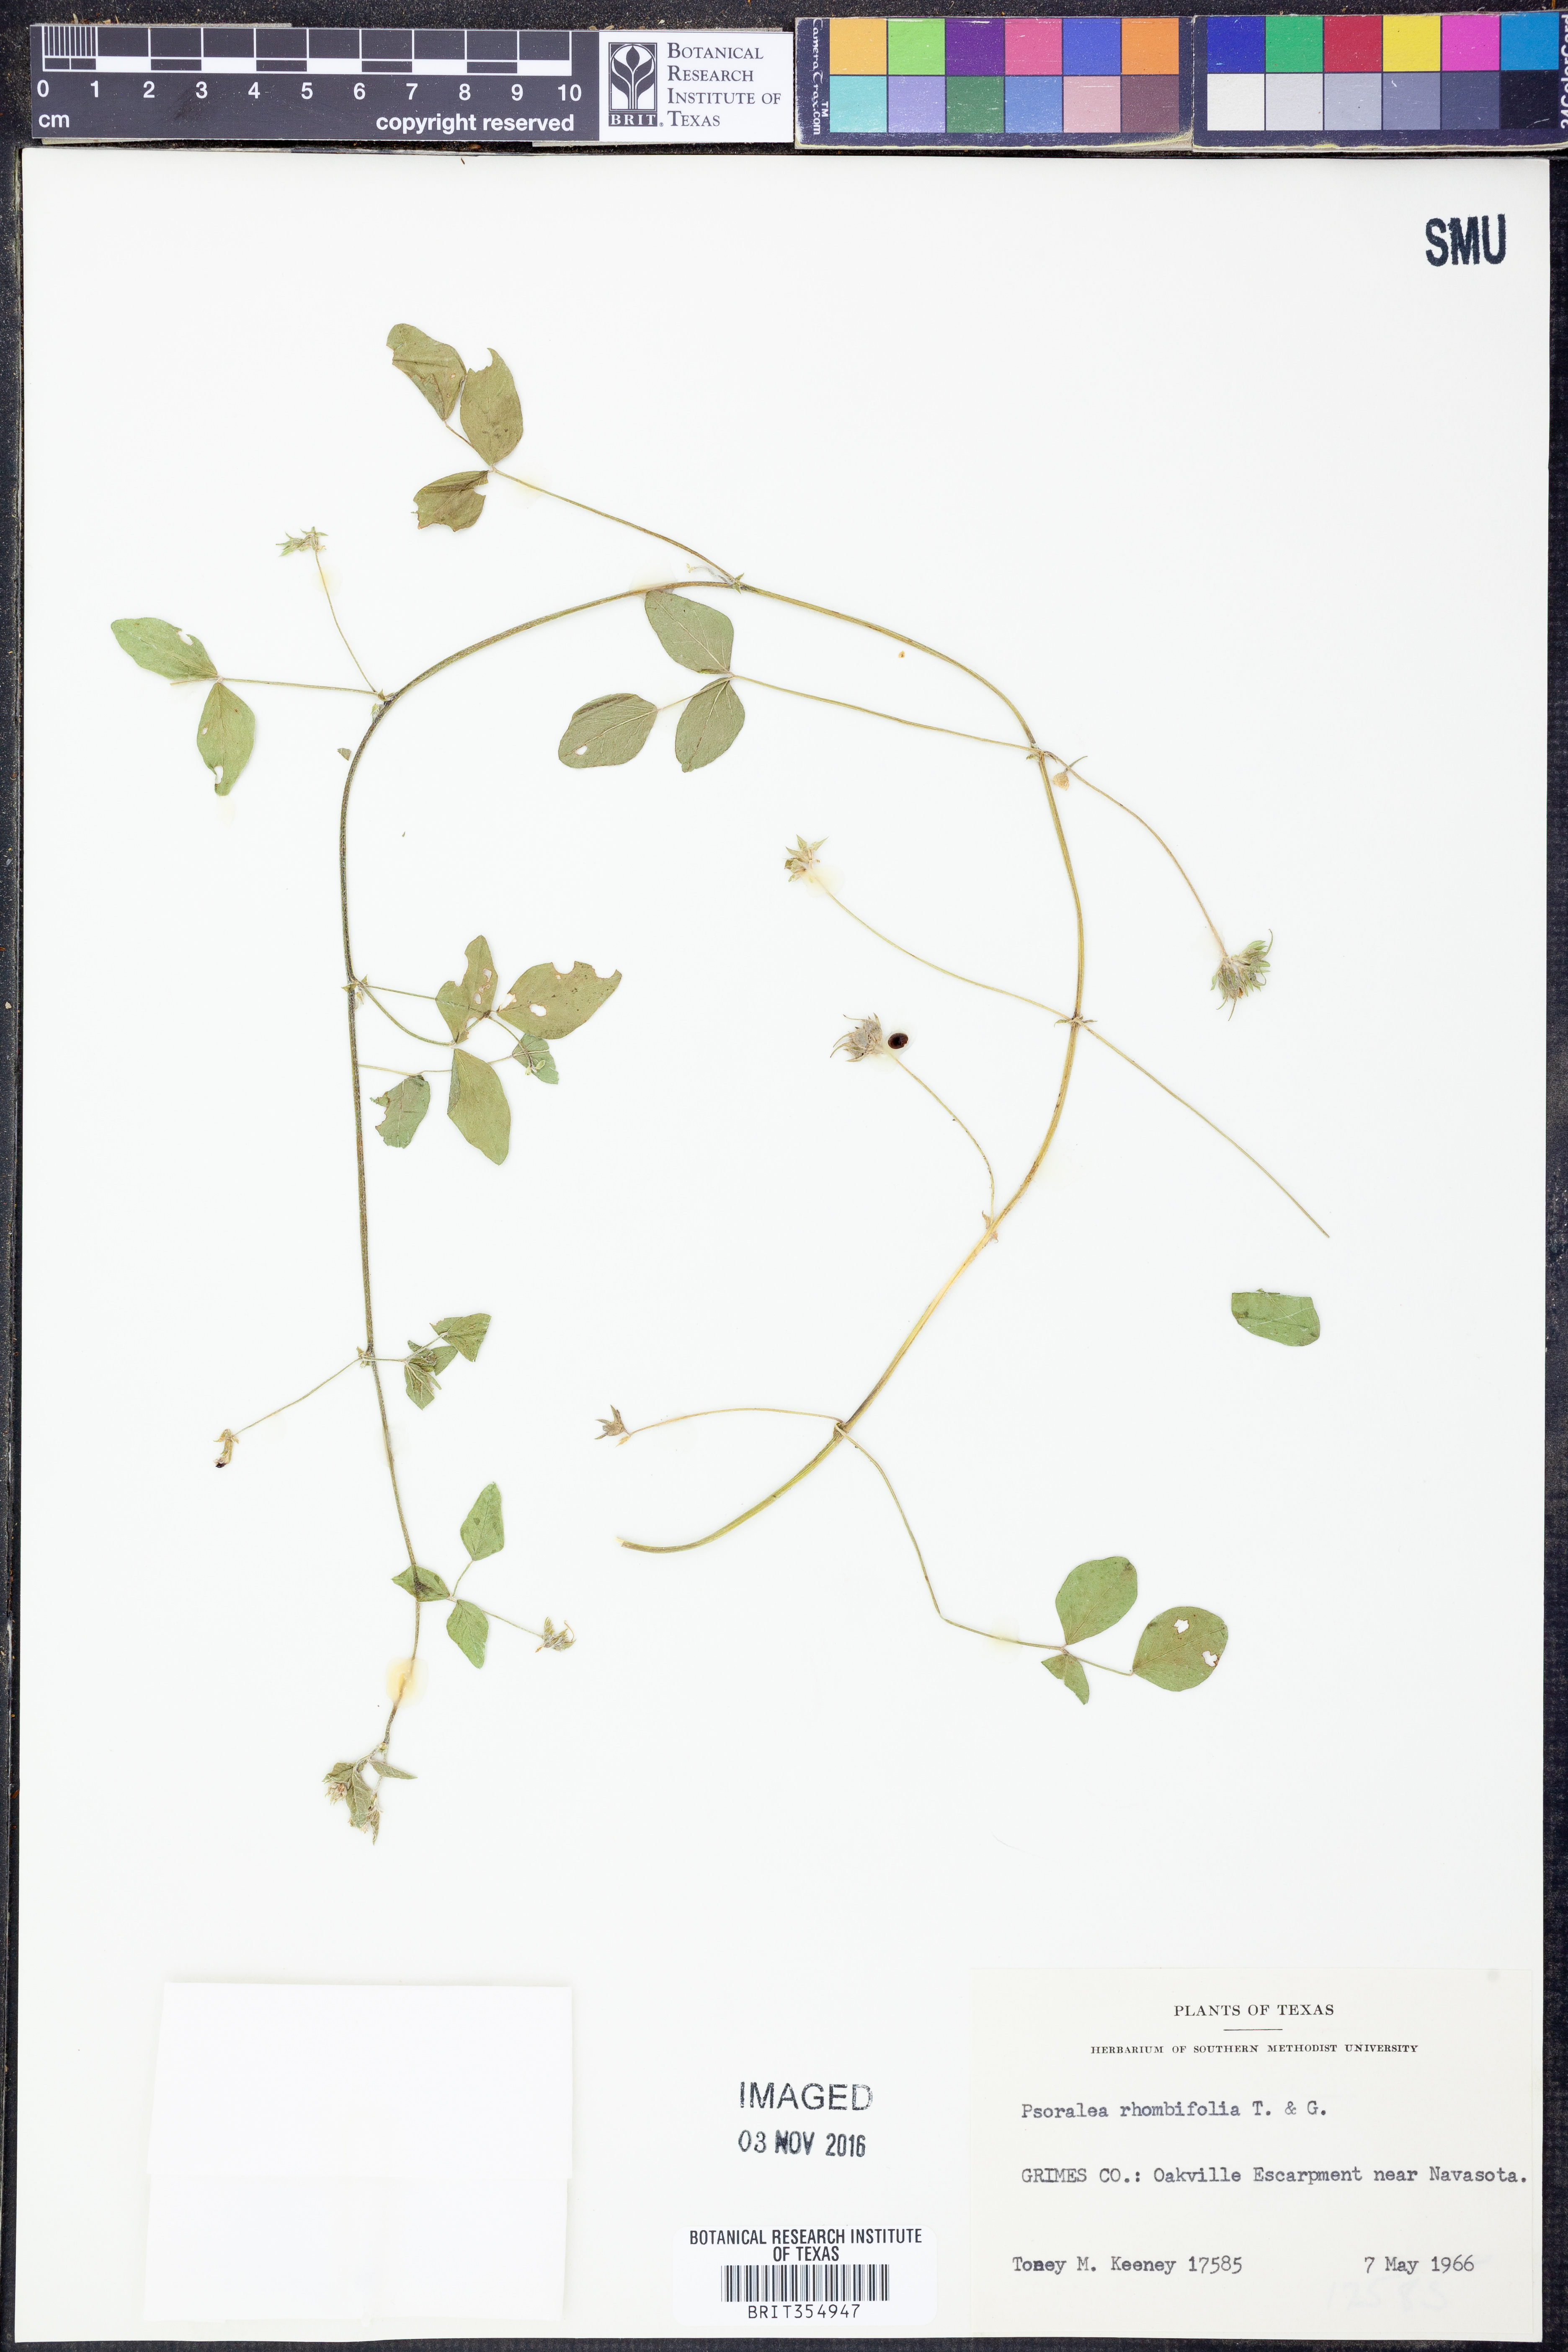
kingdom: Plantae
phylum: Tracheophyta
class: Magnoliopsida
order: Fabales
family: Fabaceae
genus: Pediomelum
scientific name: Pediomelum rhombifolium
